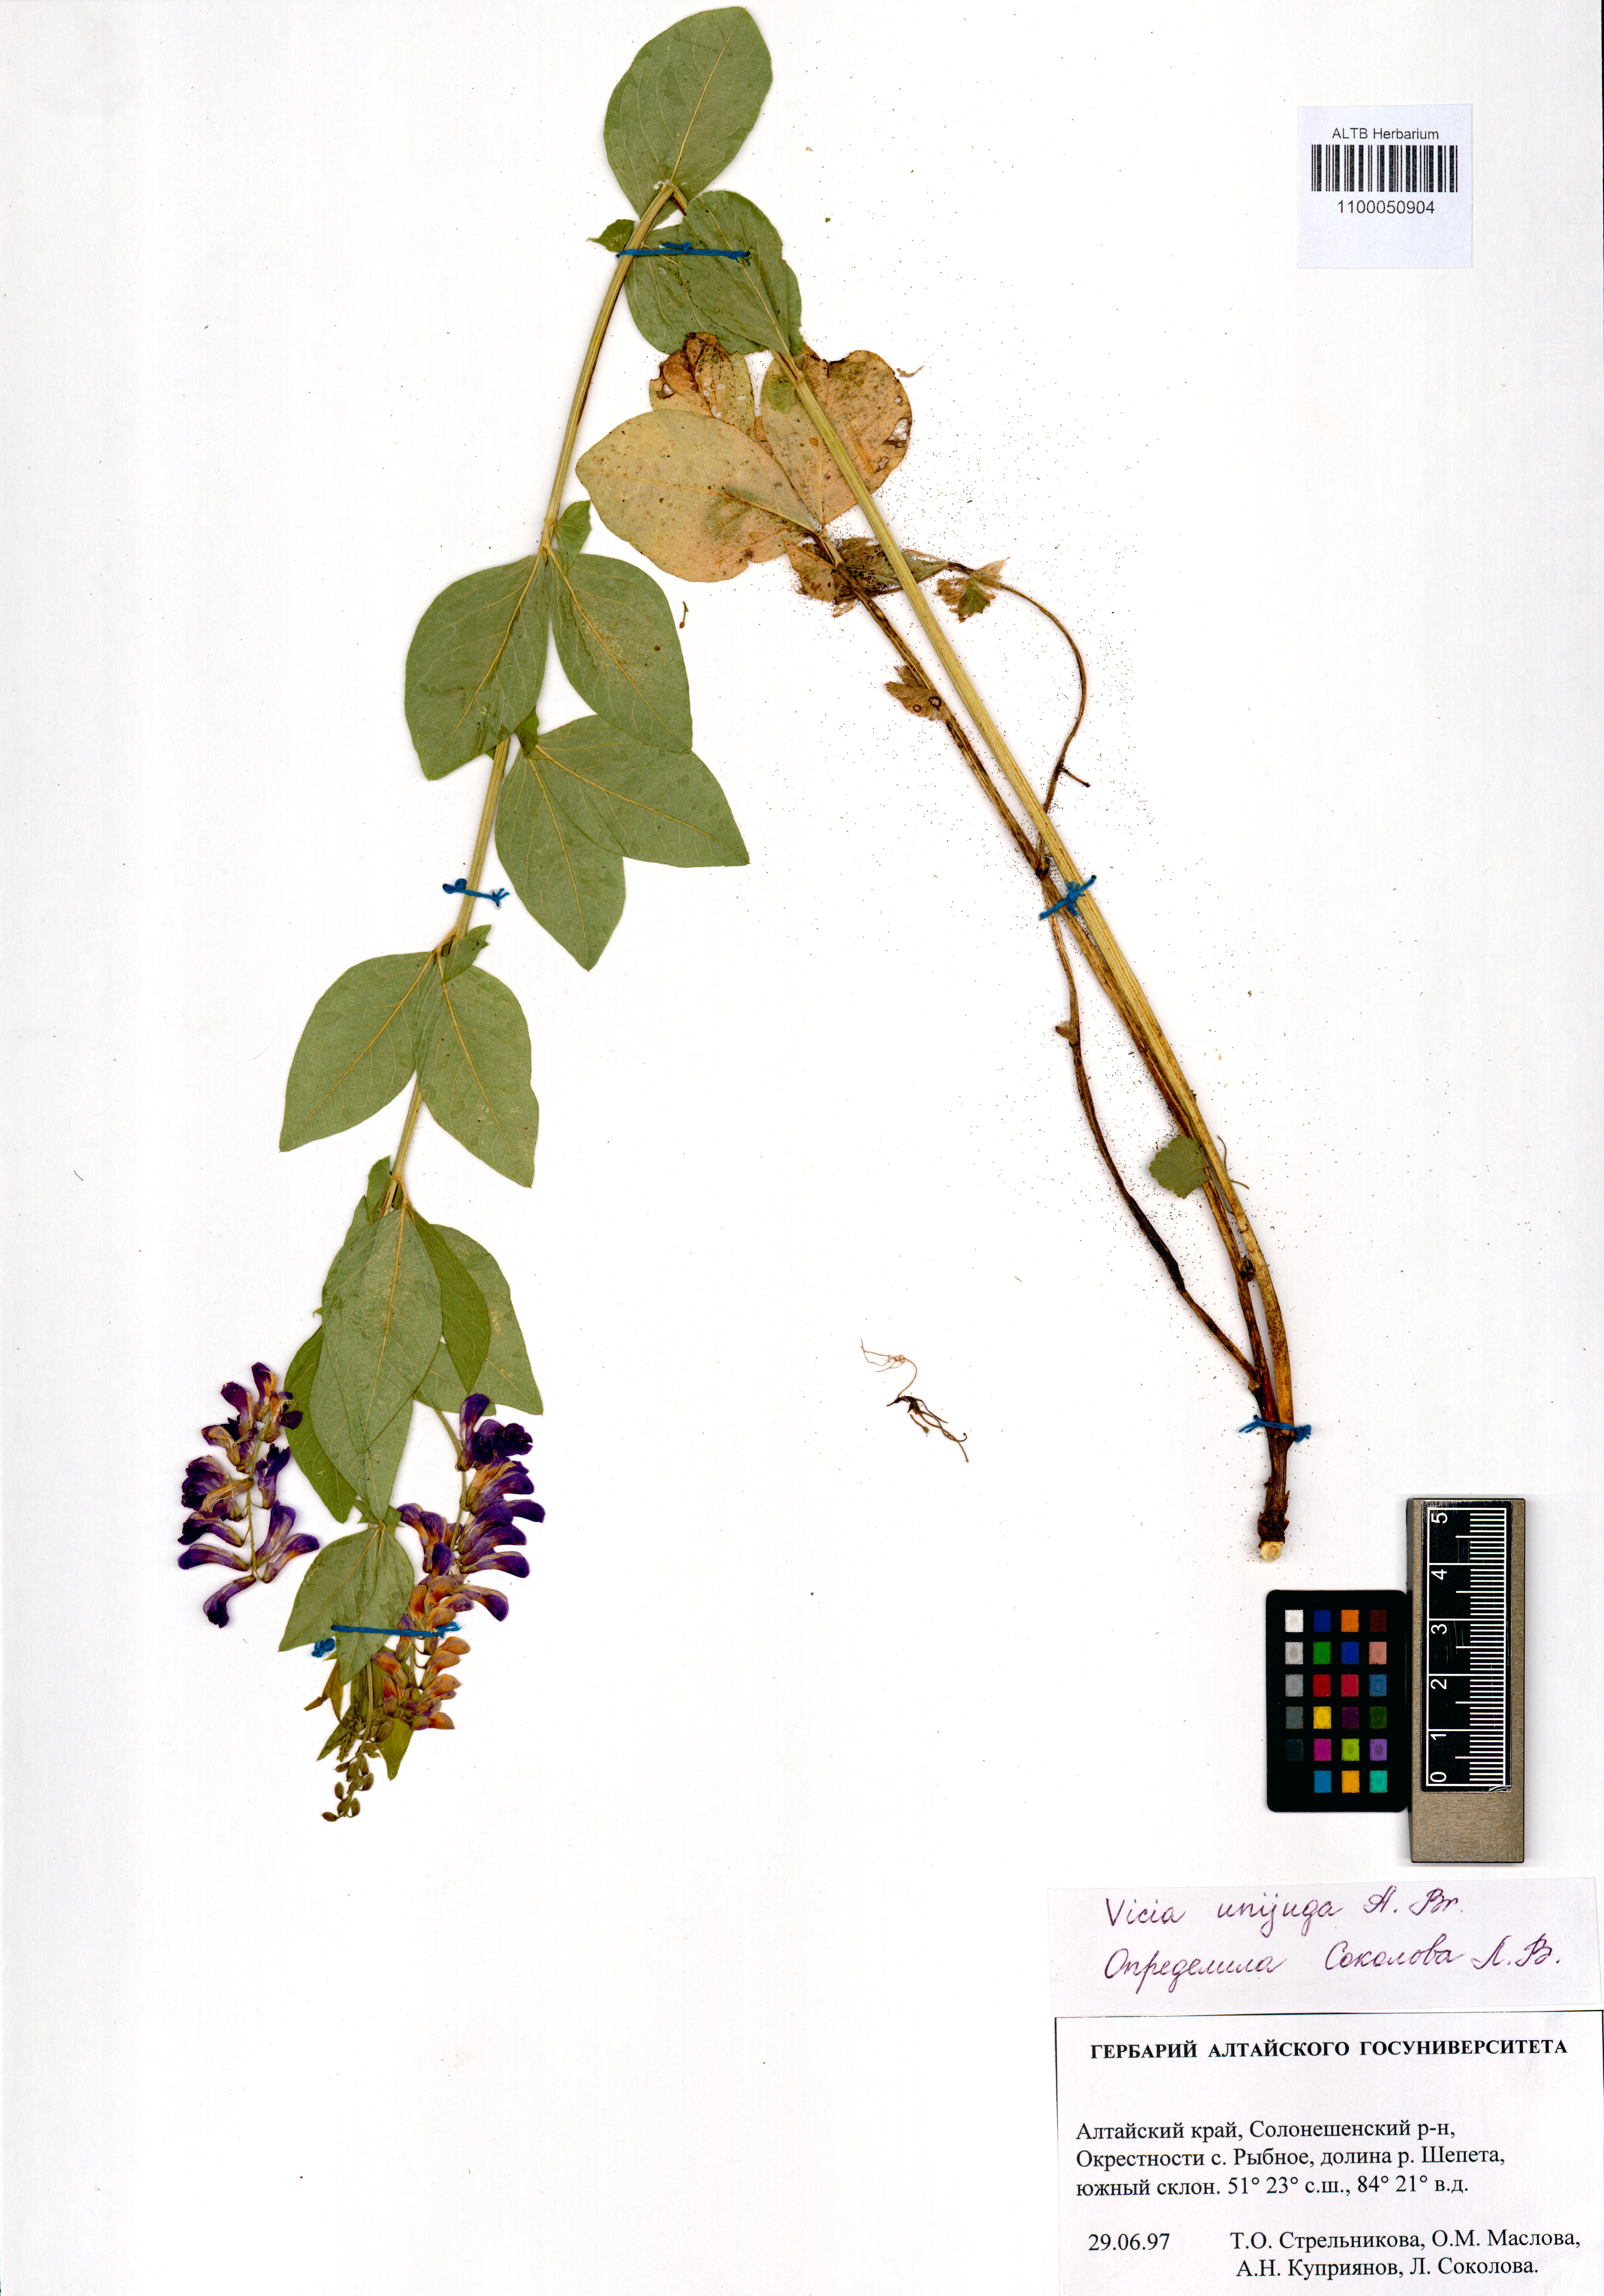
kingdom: Plantae
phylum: Tracheophyta
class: Magnoliopsida
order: Fabales
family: Fabaceae
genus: Vicia
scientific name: Vicia unijuga
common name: Two-leaf vetch
